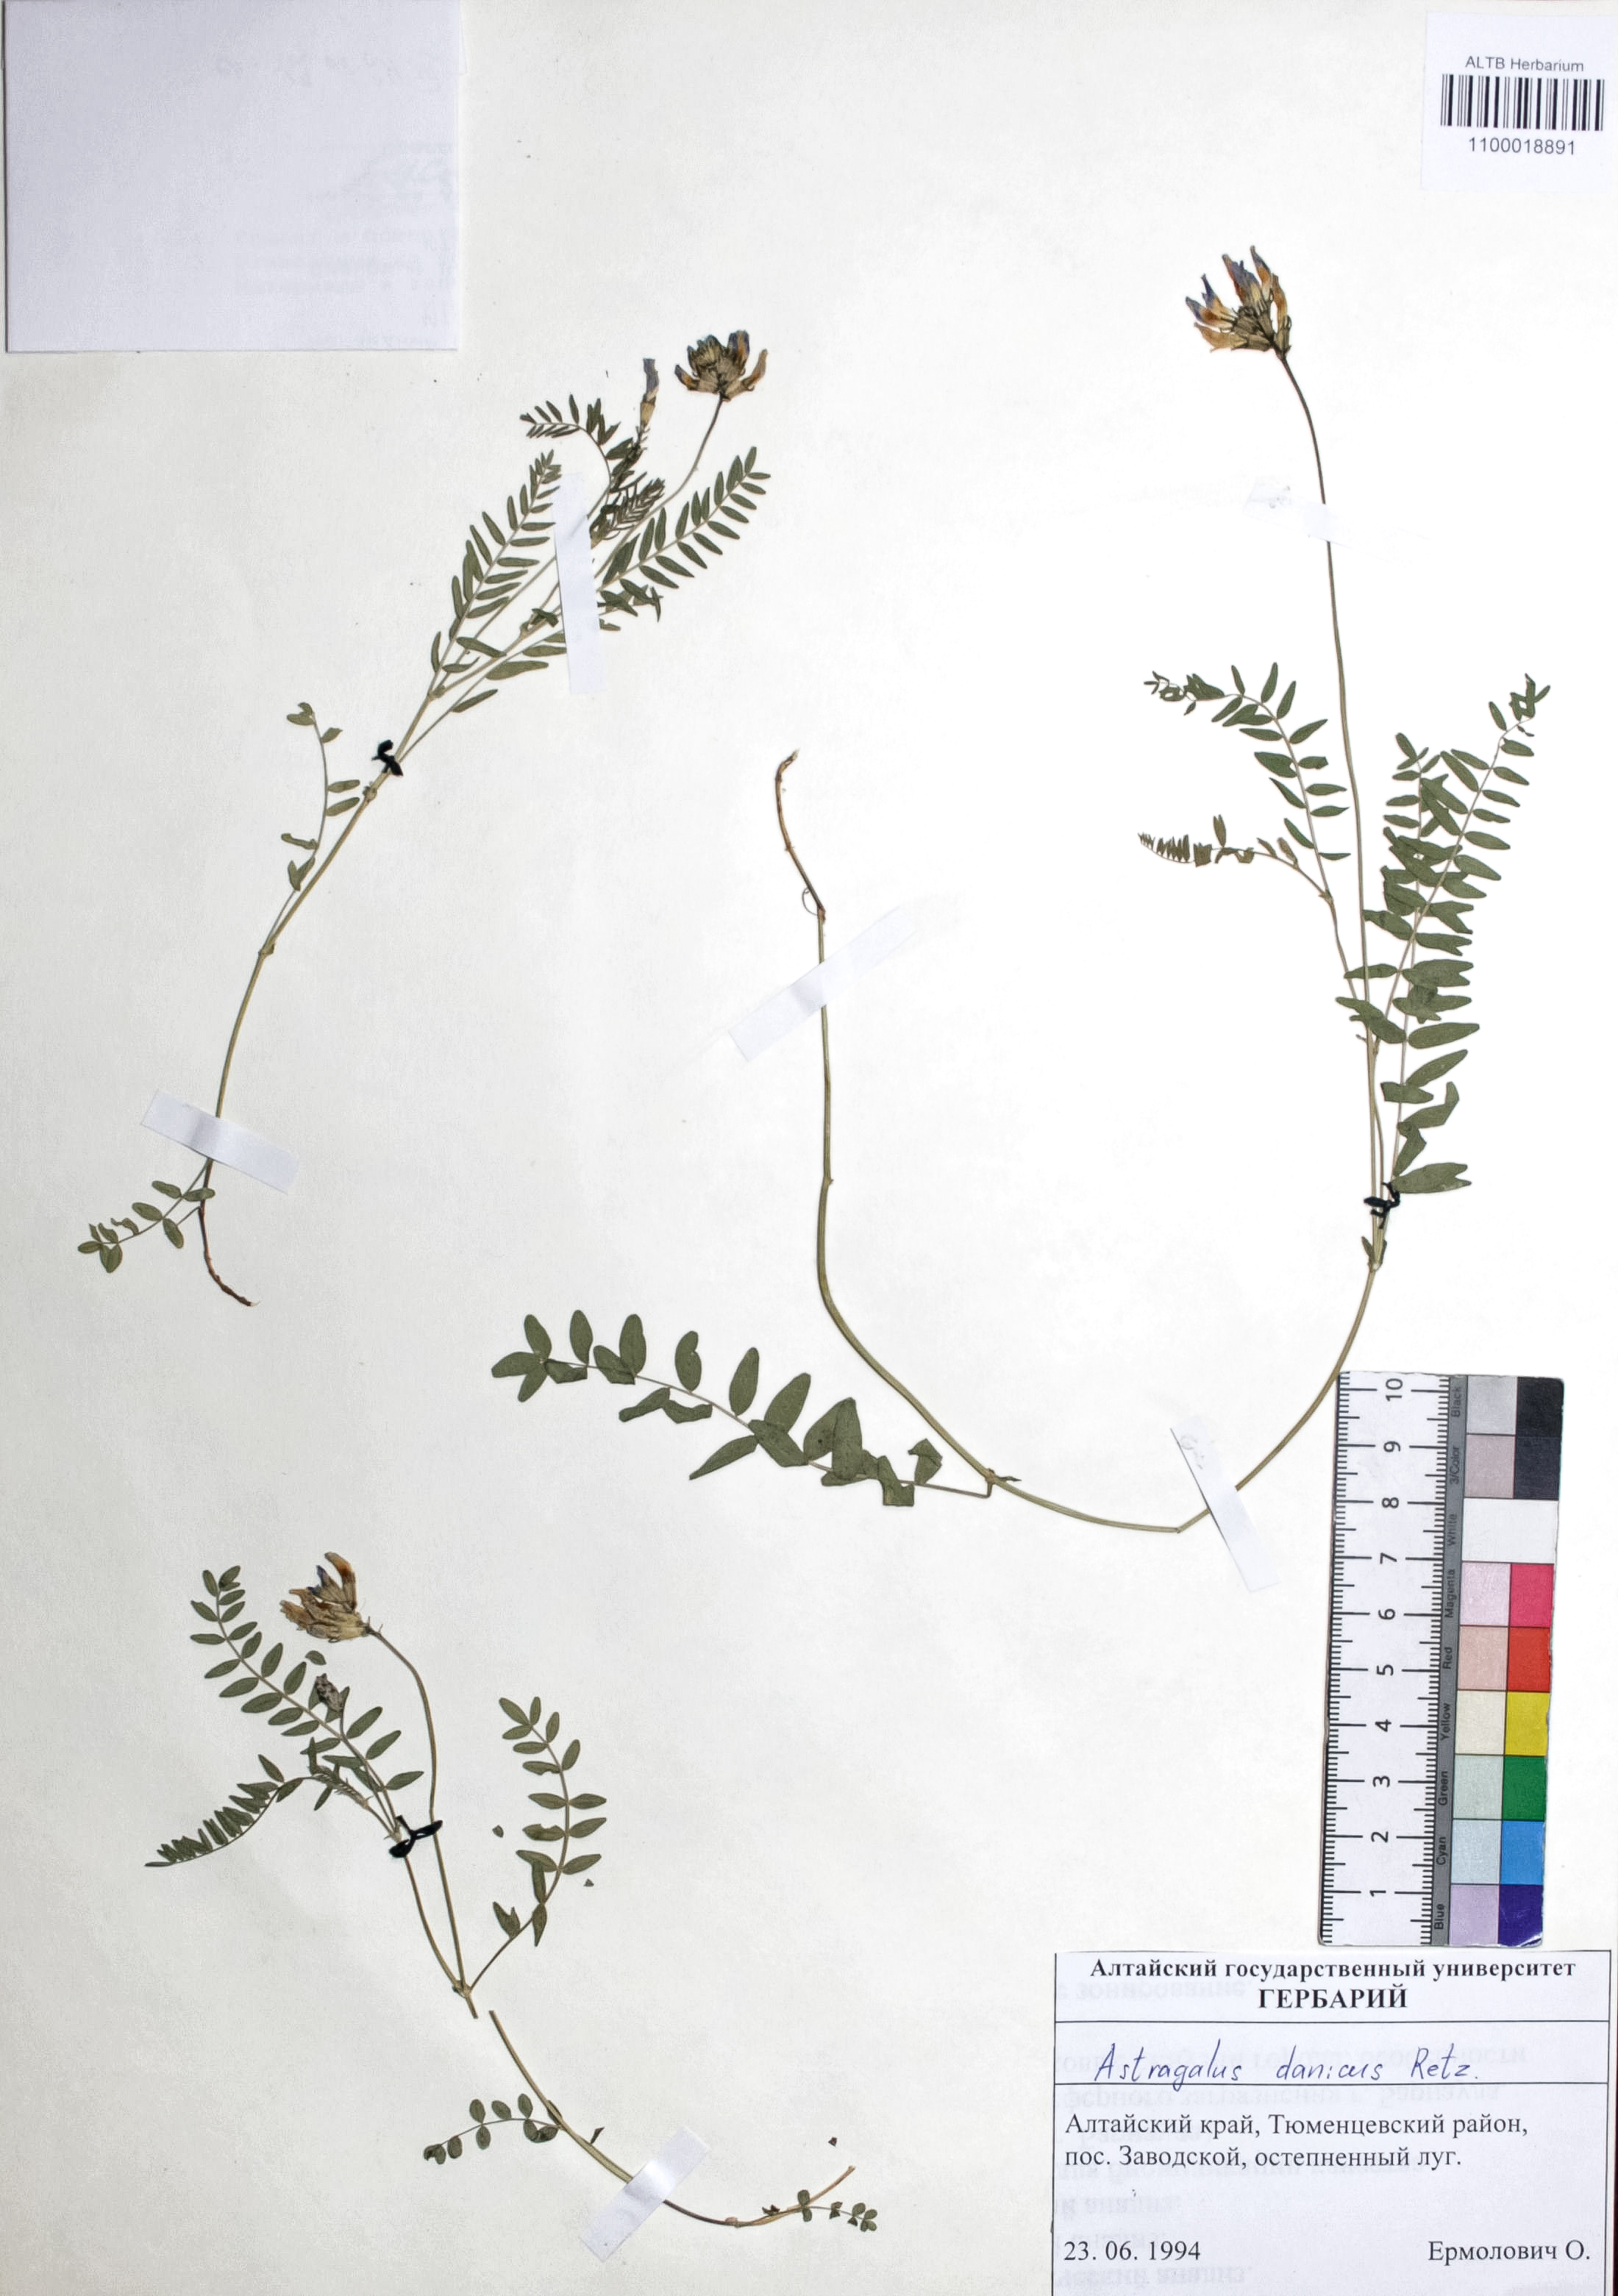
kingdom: Plantae
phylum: Tracheophyta
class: Magnoliopsida
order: Fabales
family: Fabaceae
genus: Astragalus
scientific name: Astragalus danicus
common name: Purple milk-vetch
